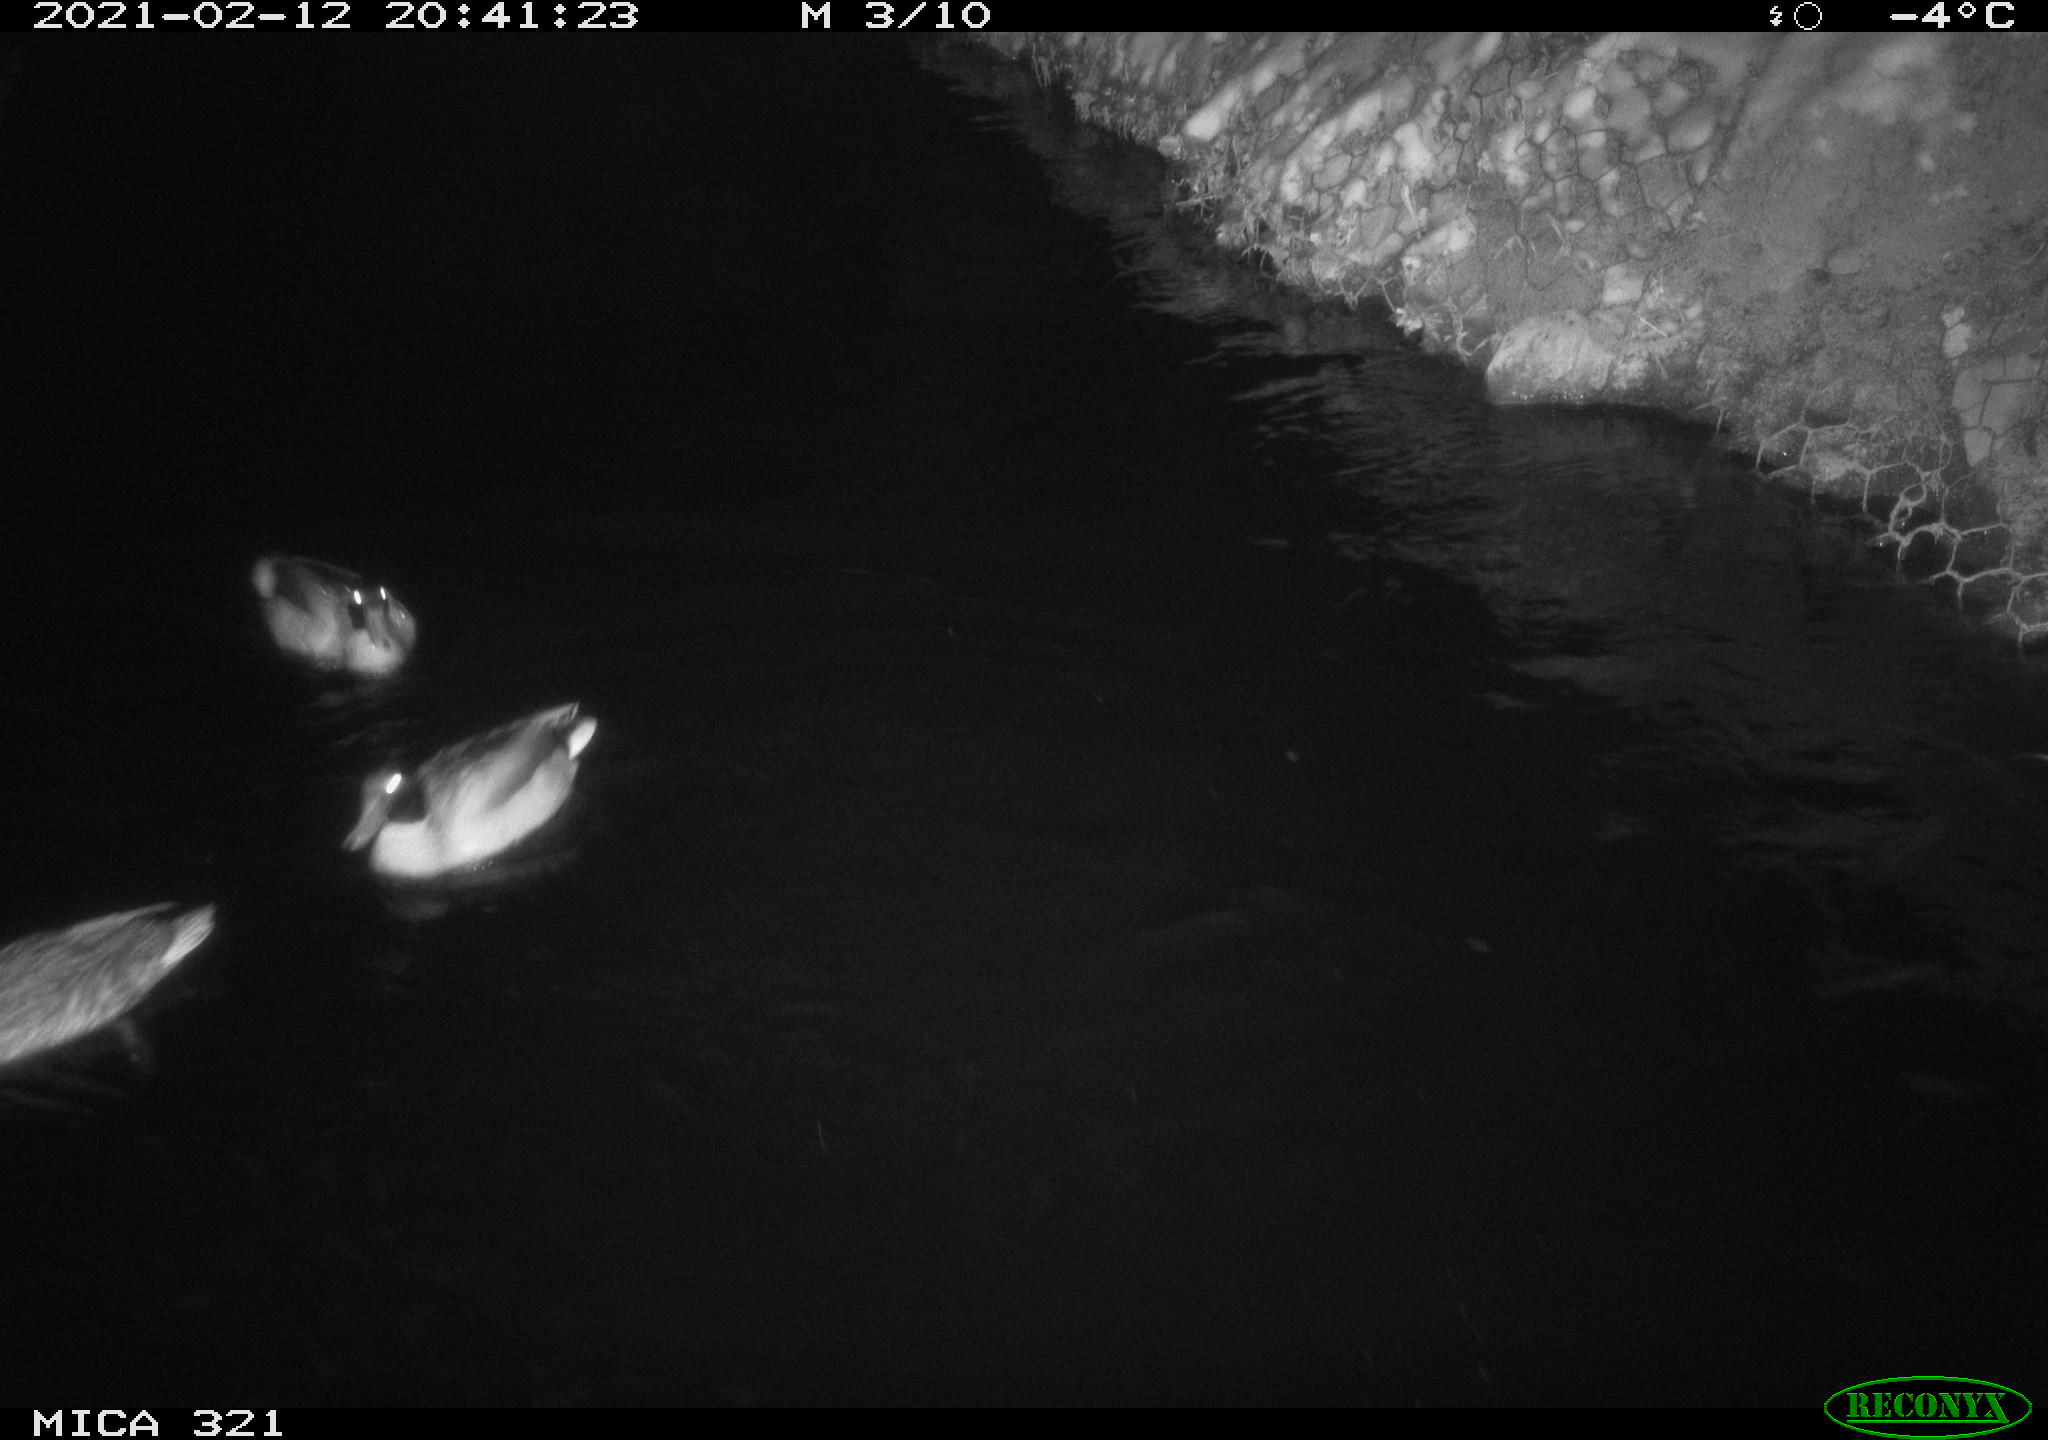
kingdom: Animalia
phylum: Chordata
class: Aves
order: Anseriformes
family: Anatidae
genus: Anas
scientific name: Anas platyrhynchos
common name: Mallard
